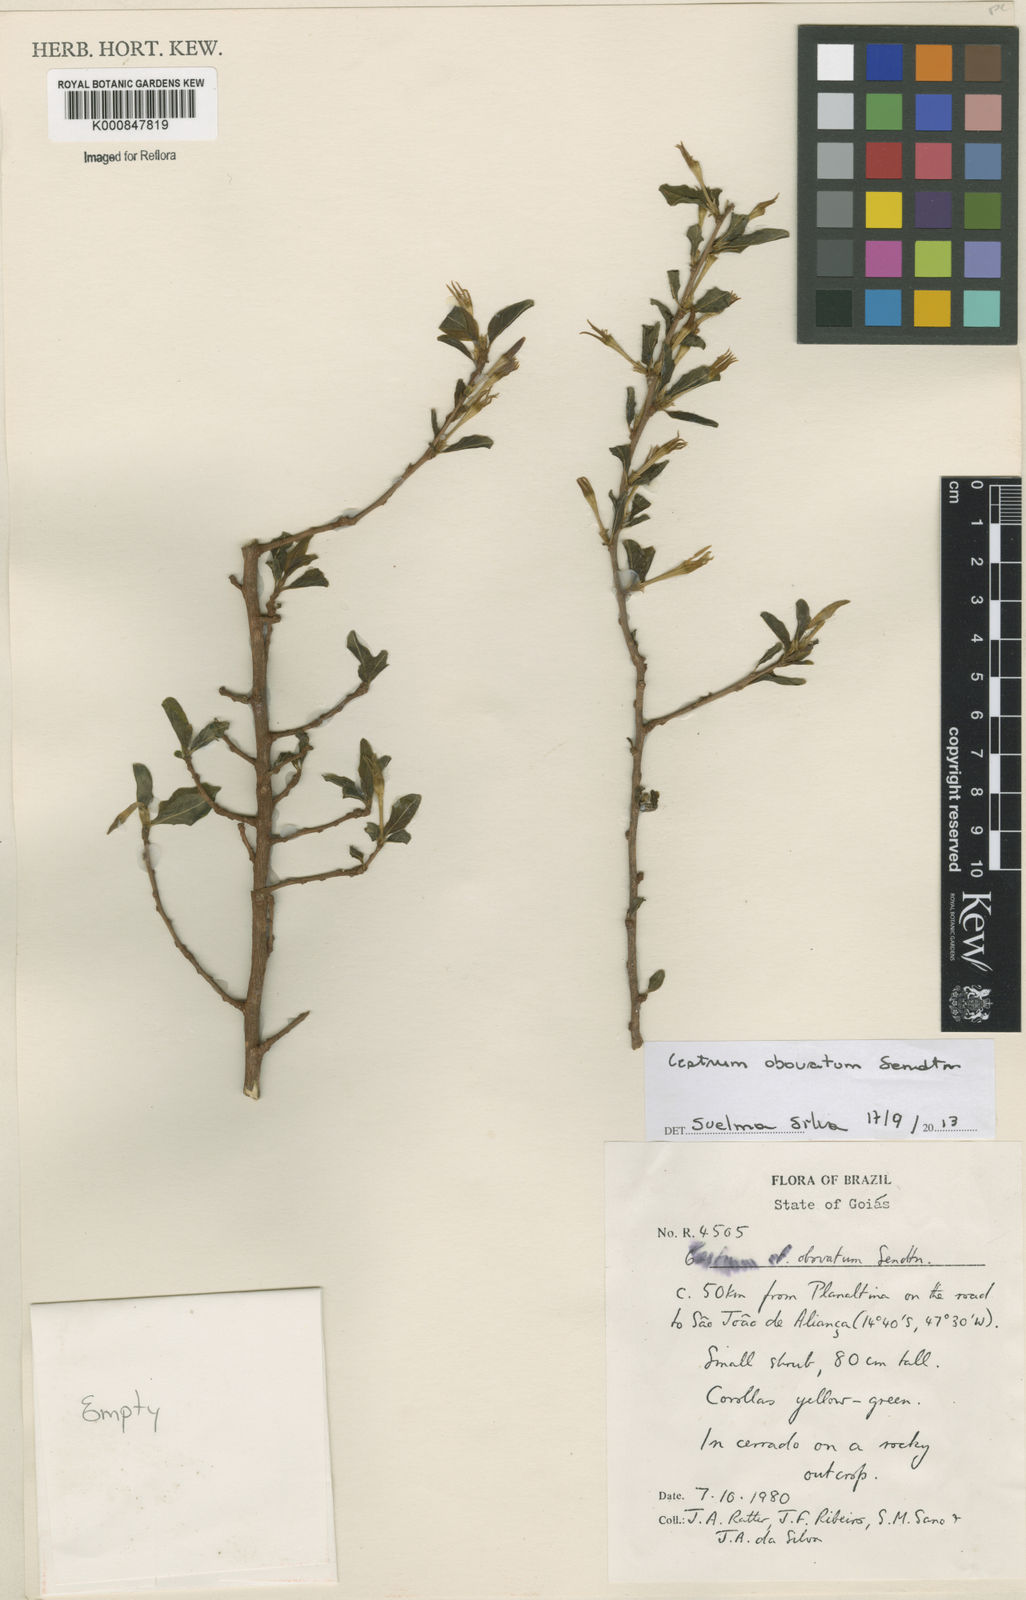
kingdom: Plantae
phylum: Tracheophyta
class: Magnoliopsida
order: Solanales
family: Solanaceae
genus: Cestrum
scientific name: Cestrum obovatum
